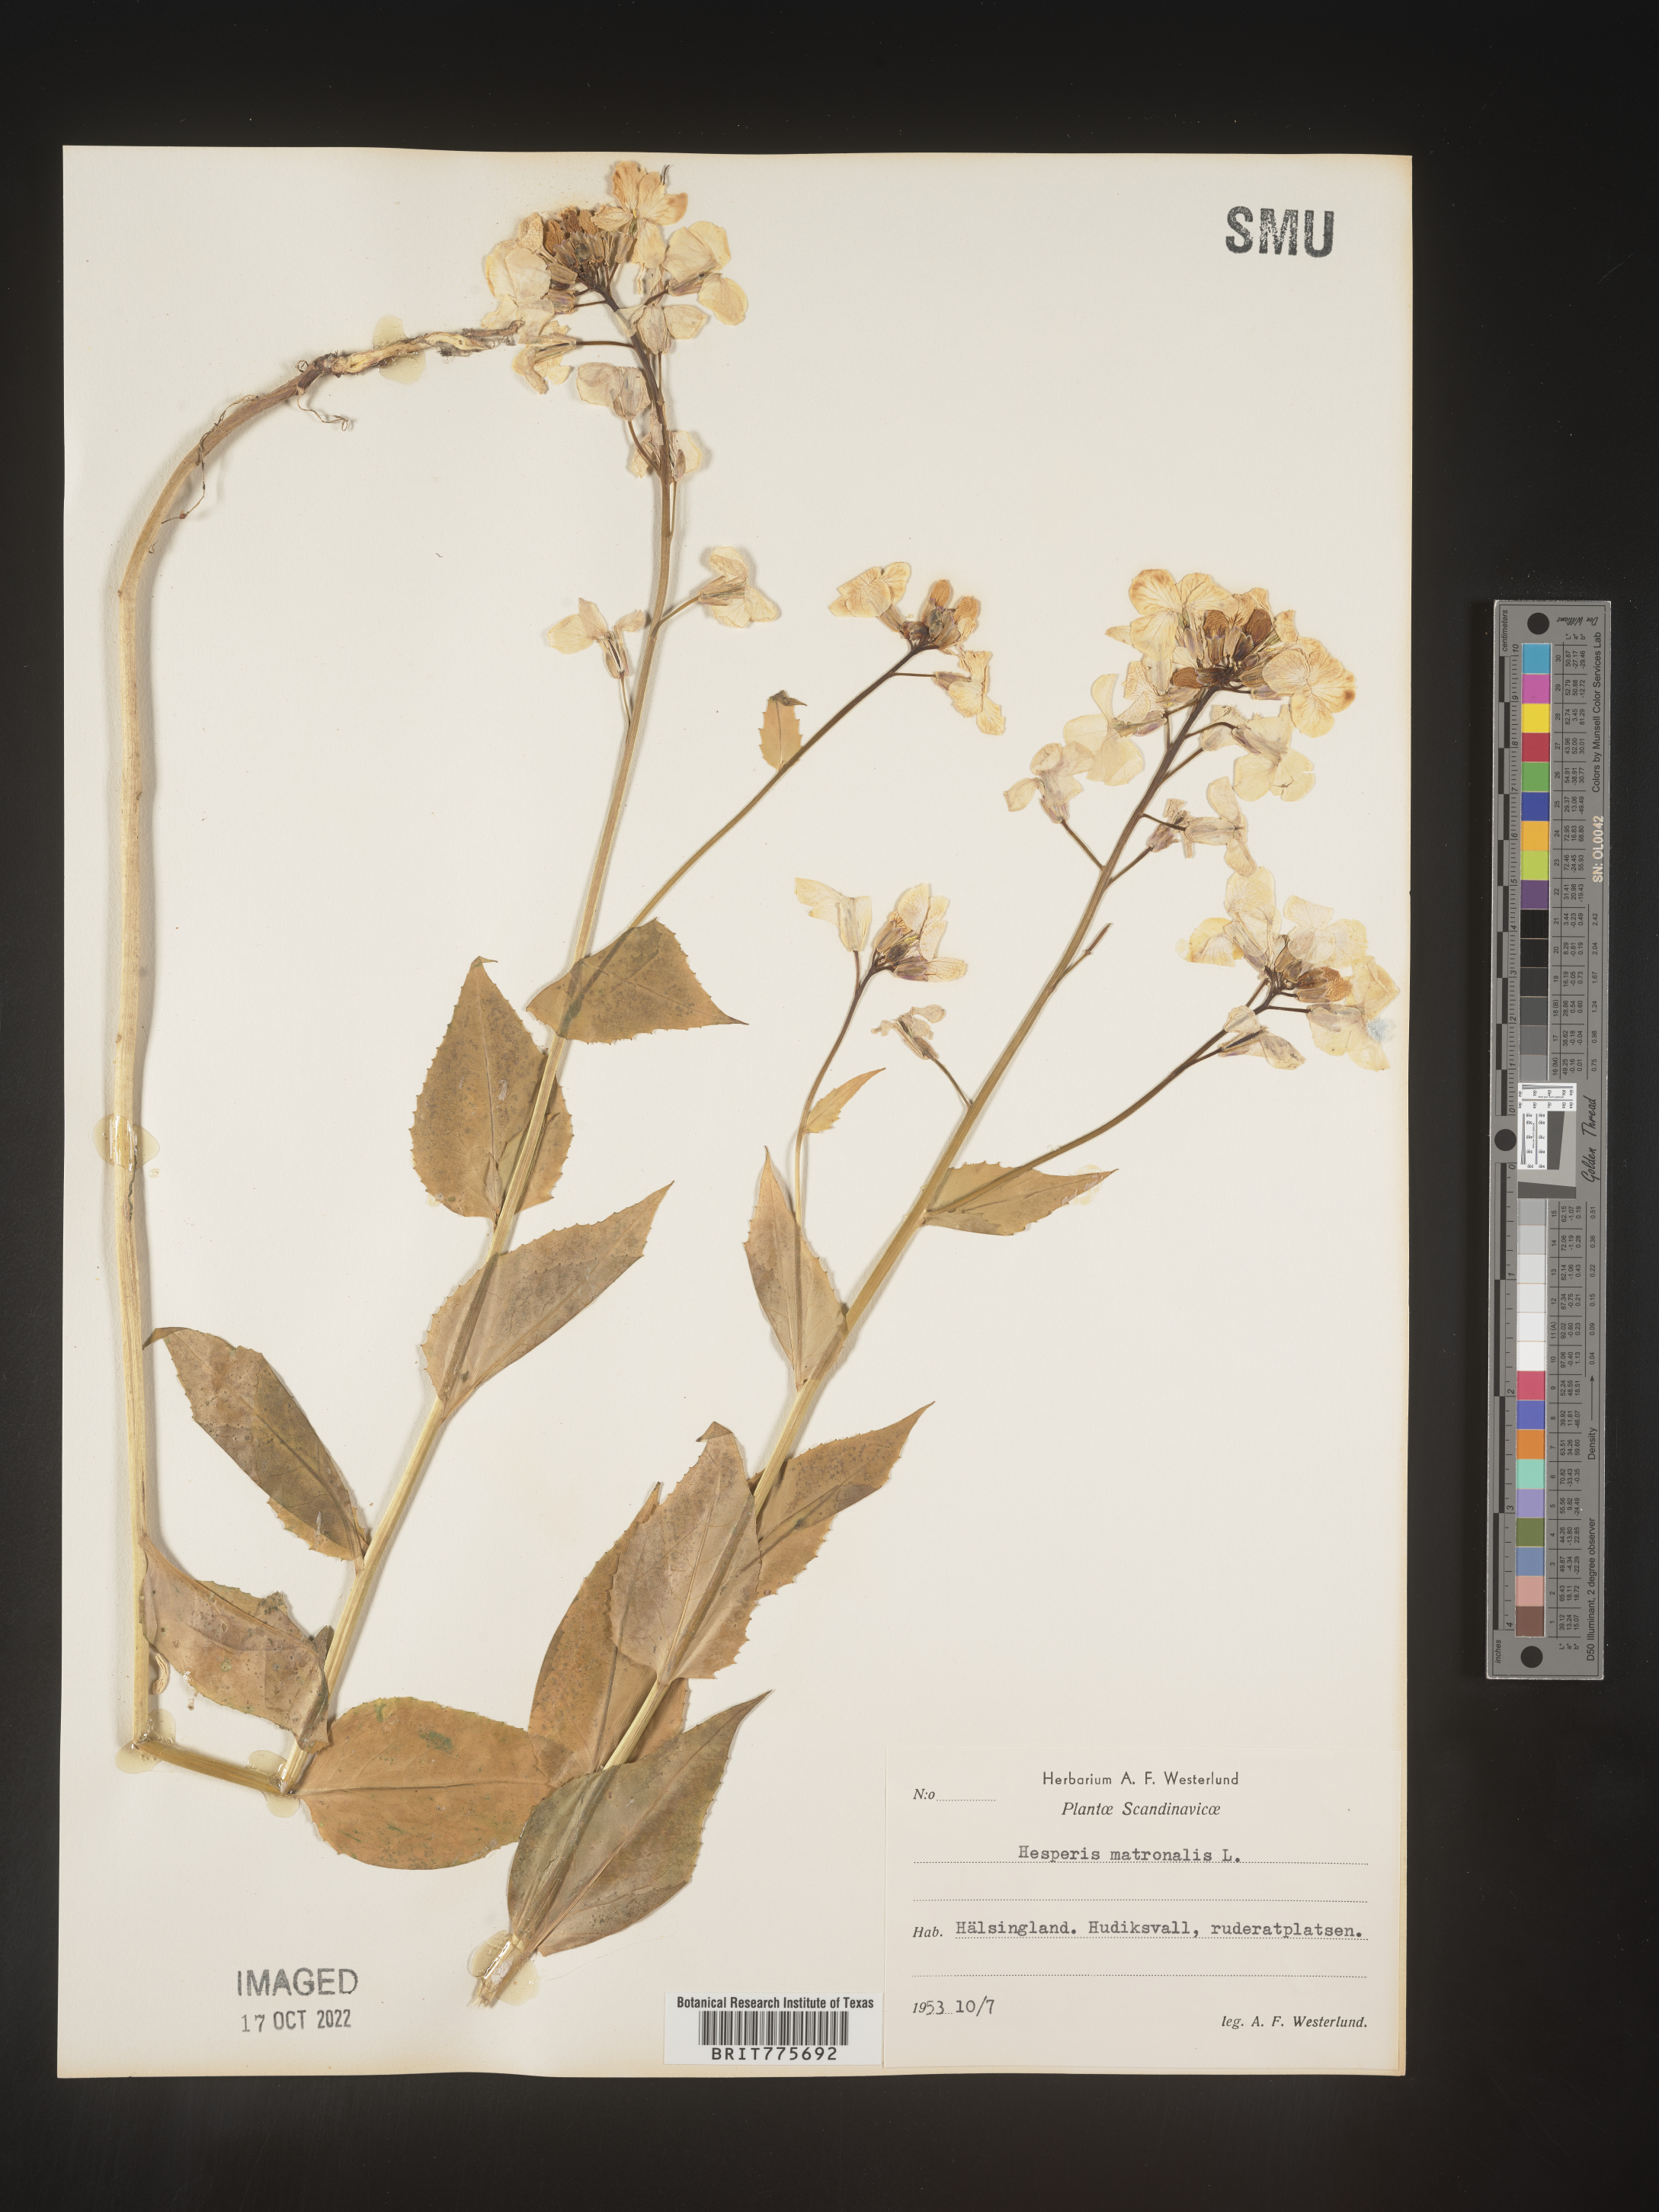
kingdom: Plantae
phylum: Tracheophyta
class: Magnoliopsida
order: Brassicales
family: Brassicaceae
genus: Hesperis
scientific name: Hesperis
